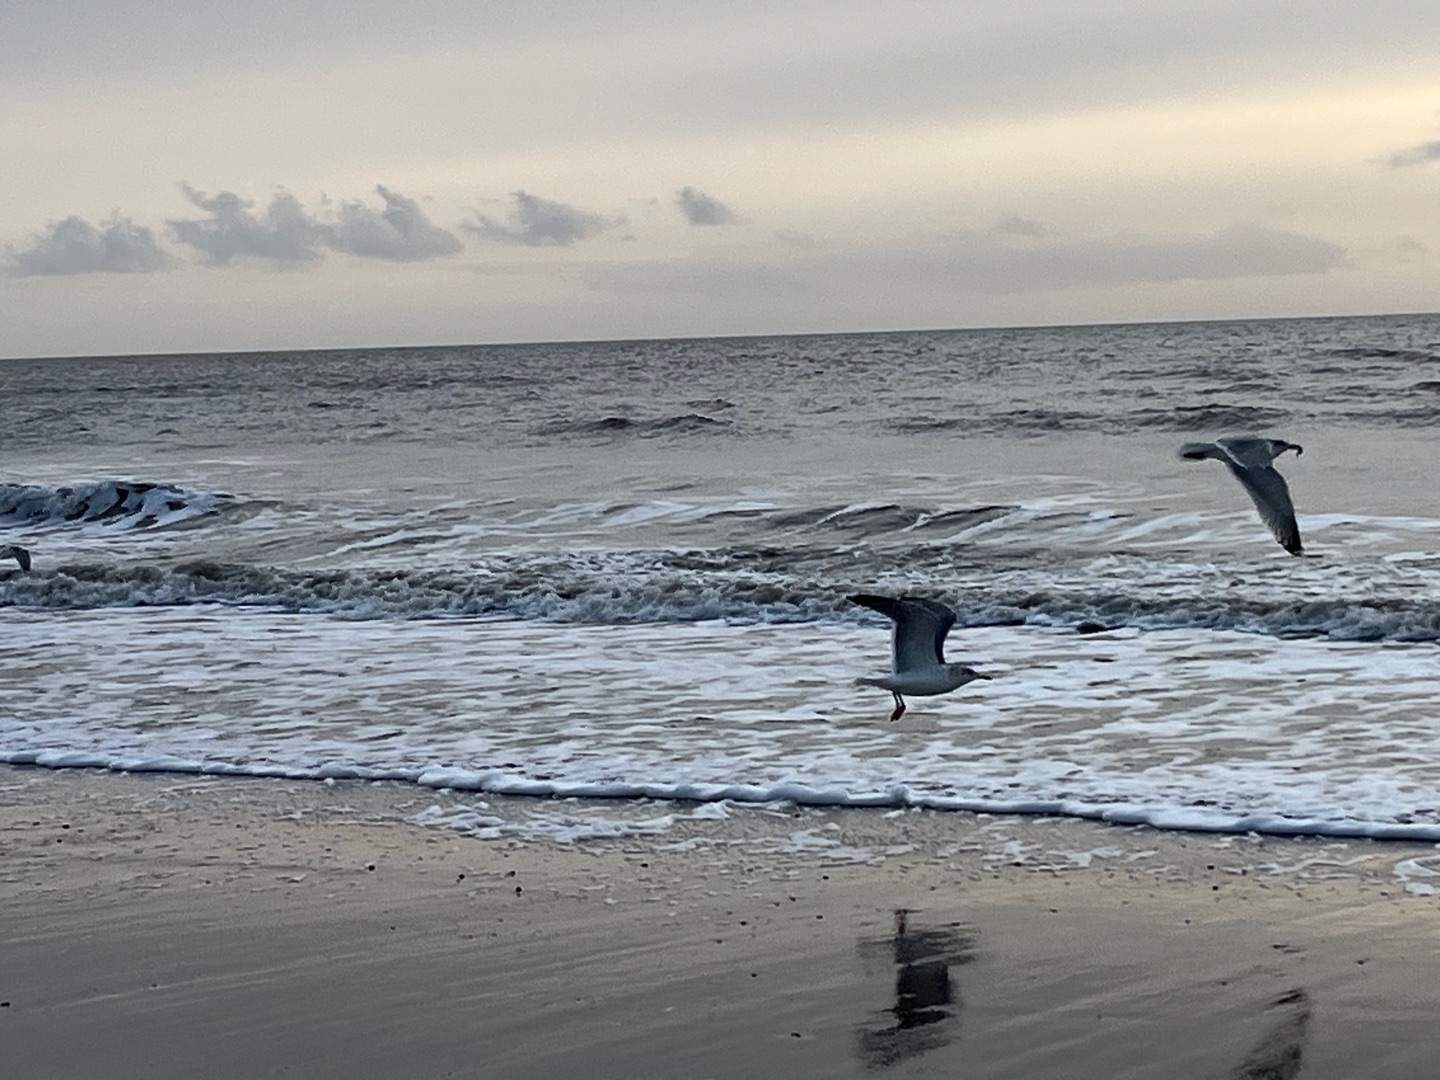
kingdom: Animalia
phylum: Chordata
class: Aves
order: Charadriiformes
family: Laridae
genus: Larus
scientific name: Larus argentatus
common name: Sølvmåge
